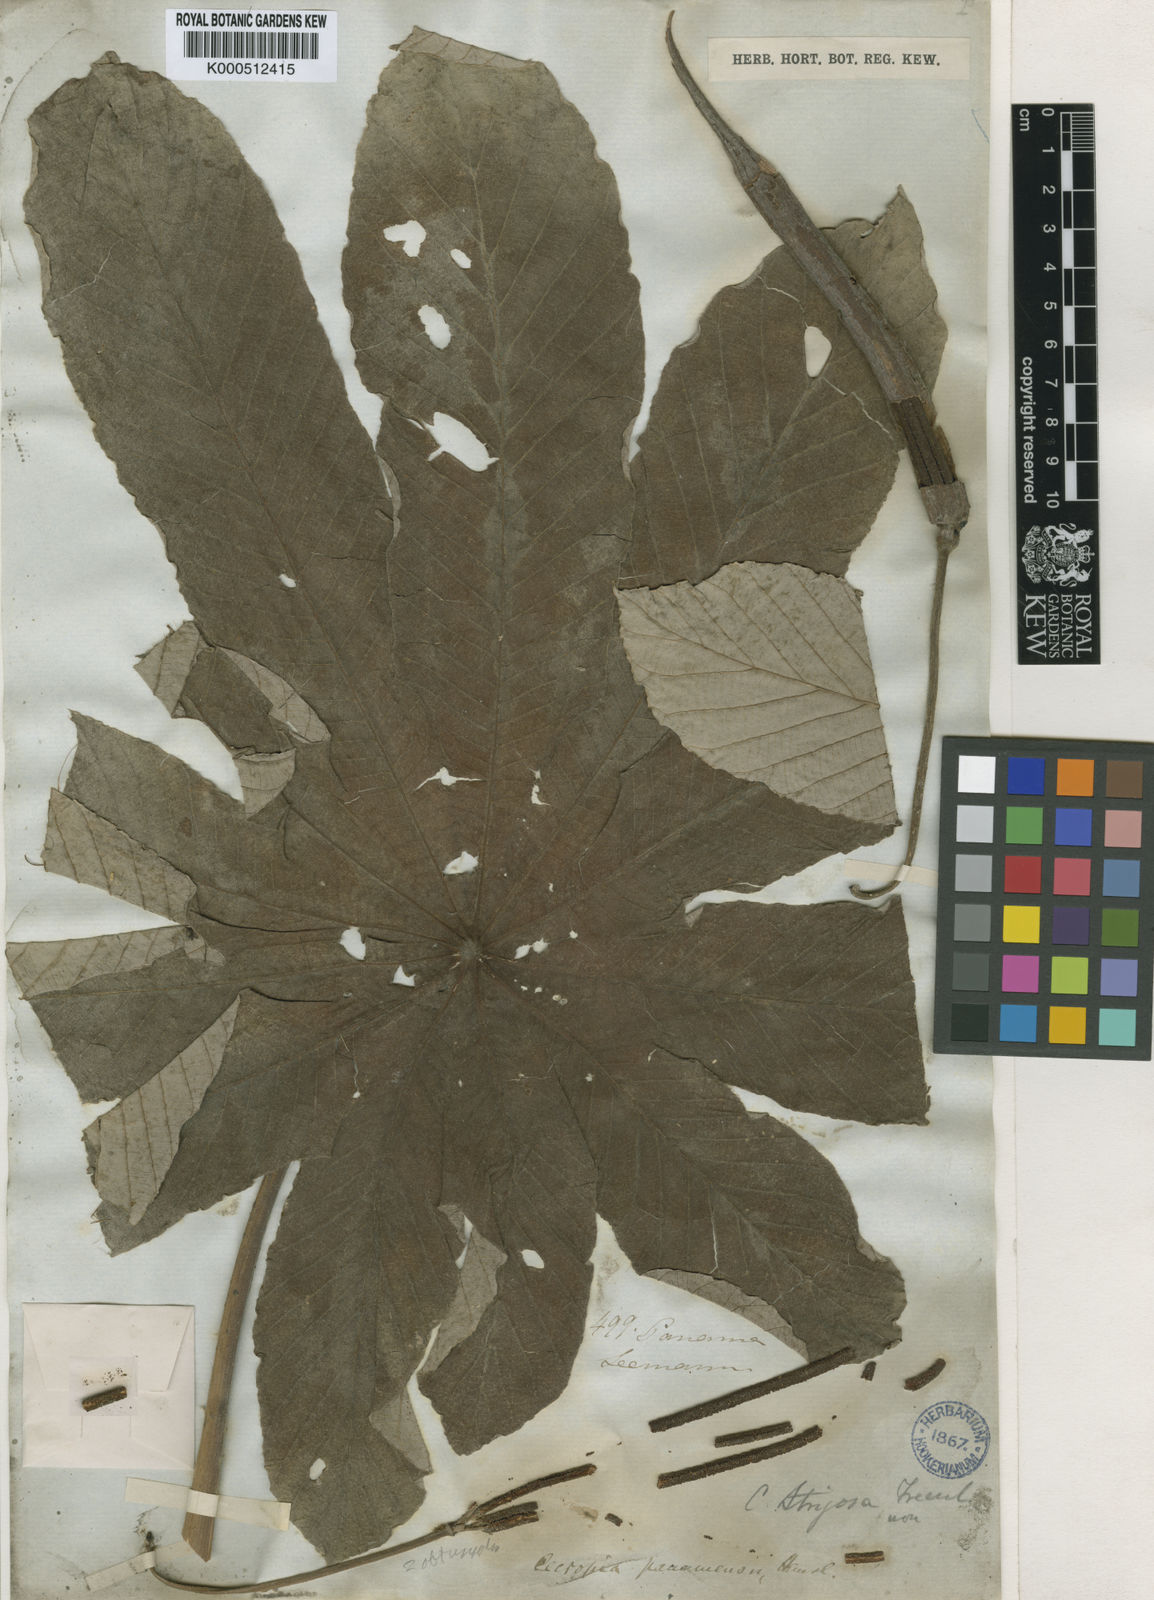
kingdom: Plantae
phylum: Tracheophyta
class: Magnoliopsida
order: Rosales
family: Urticaceae
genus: Cecropia
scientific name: Cecropia obtusifolia
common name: Trumpet tree
